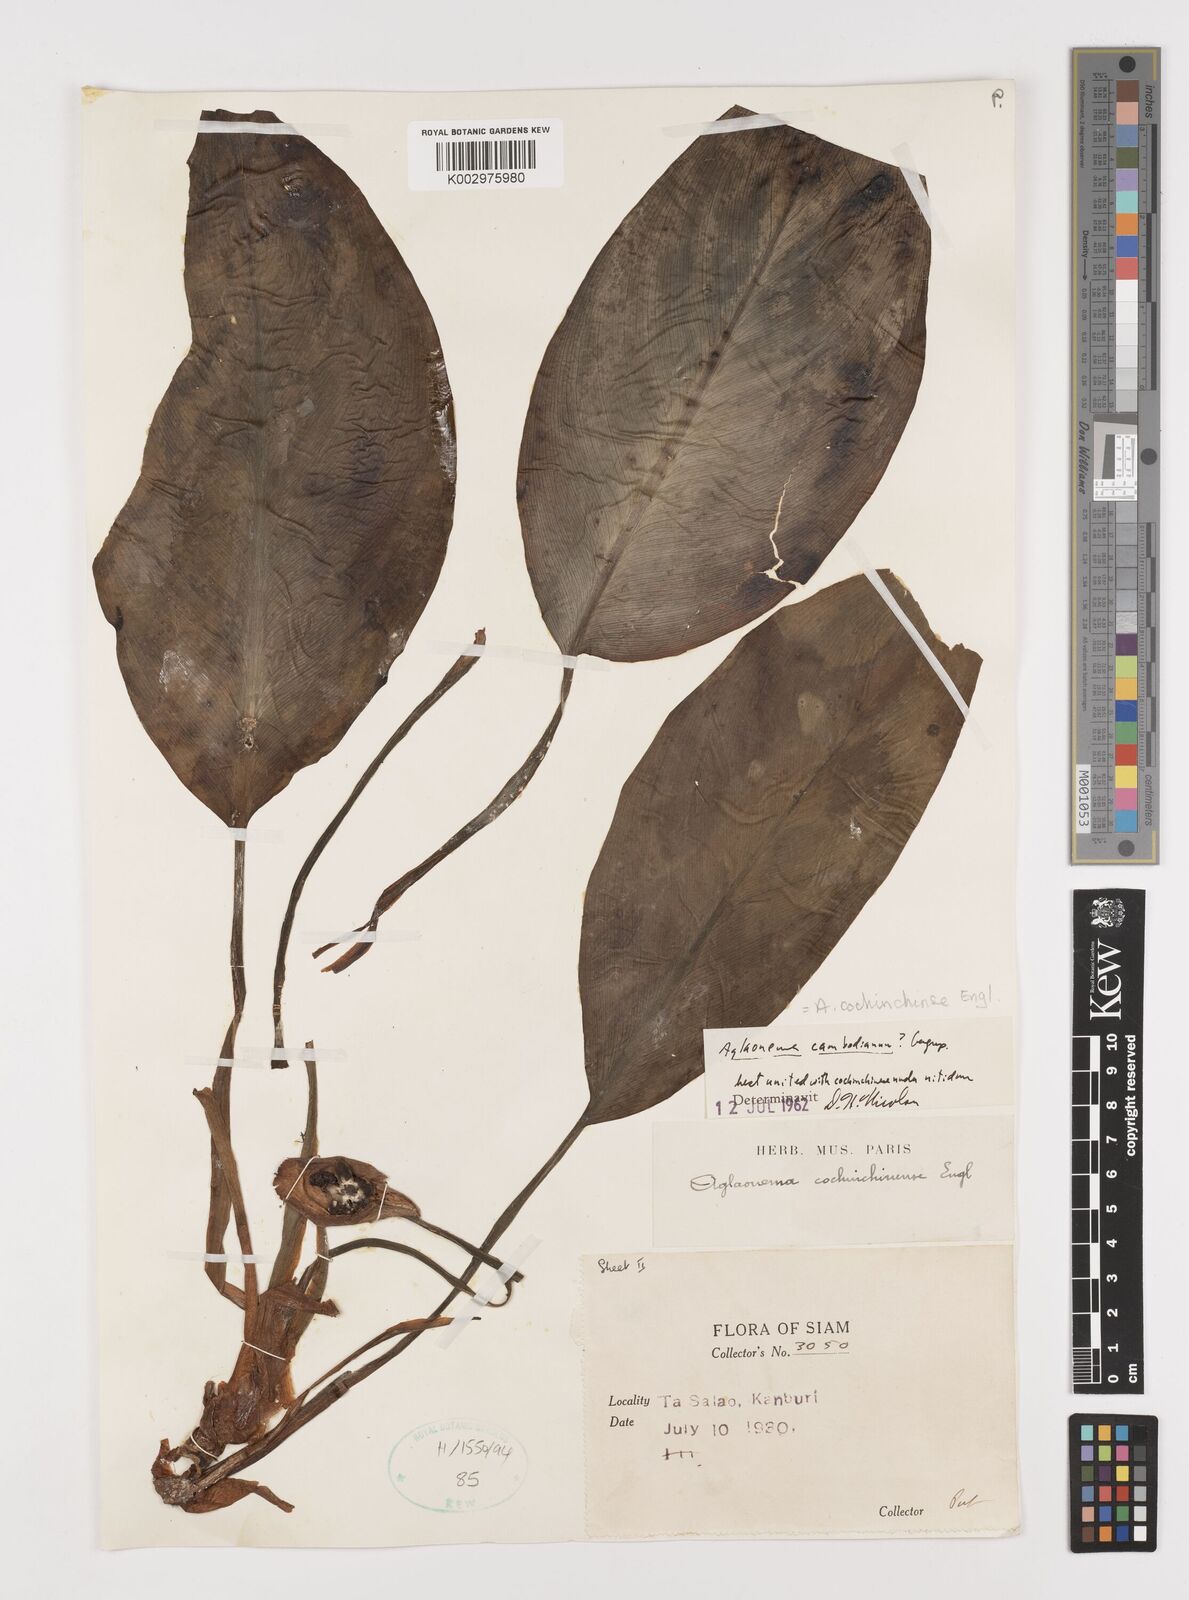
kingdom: Plantae
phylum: Tracheophyta
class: Liliopsida
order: Alismatales
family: Araceae
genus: Aglaonema
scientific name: Aglaonema cochinchinense
